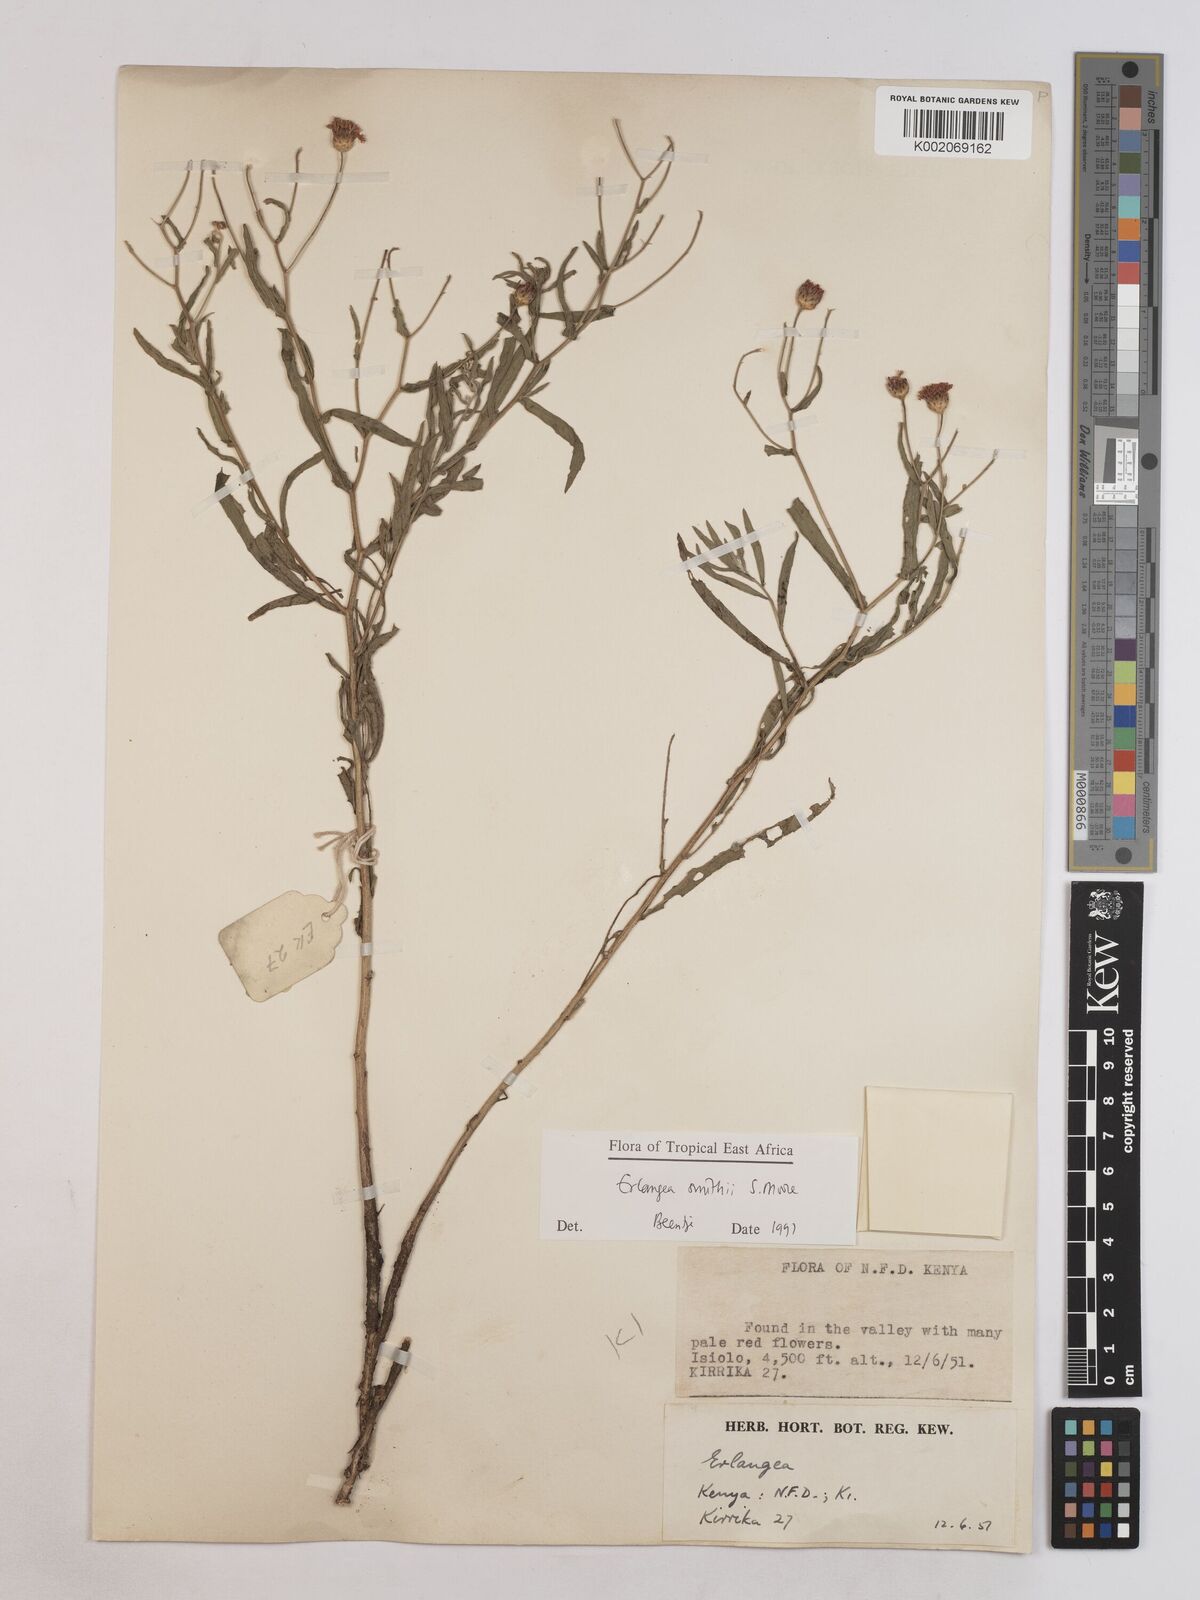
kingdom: Plantae
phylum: Tracheophyta
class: Magnoliopsida
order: Asterales
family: Asteraceae
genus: Erlangea
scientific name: Erlangea smithii
